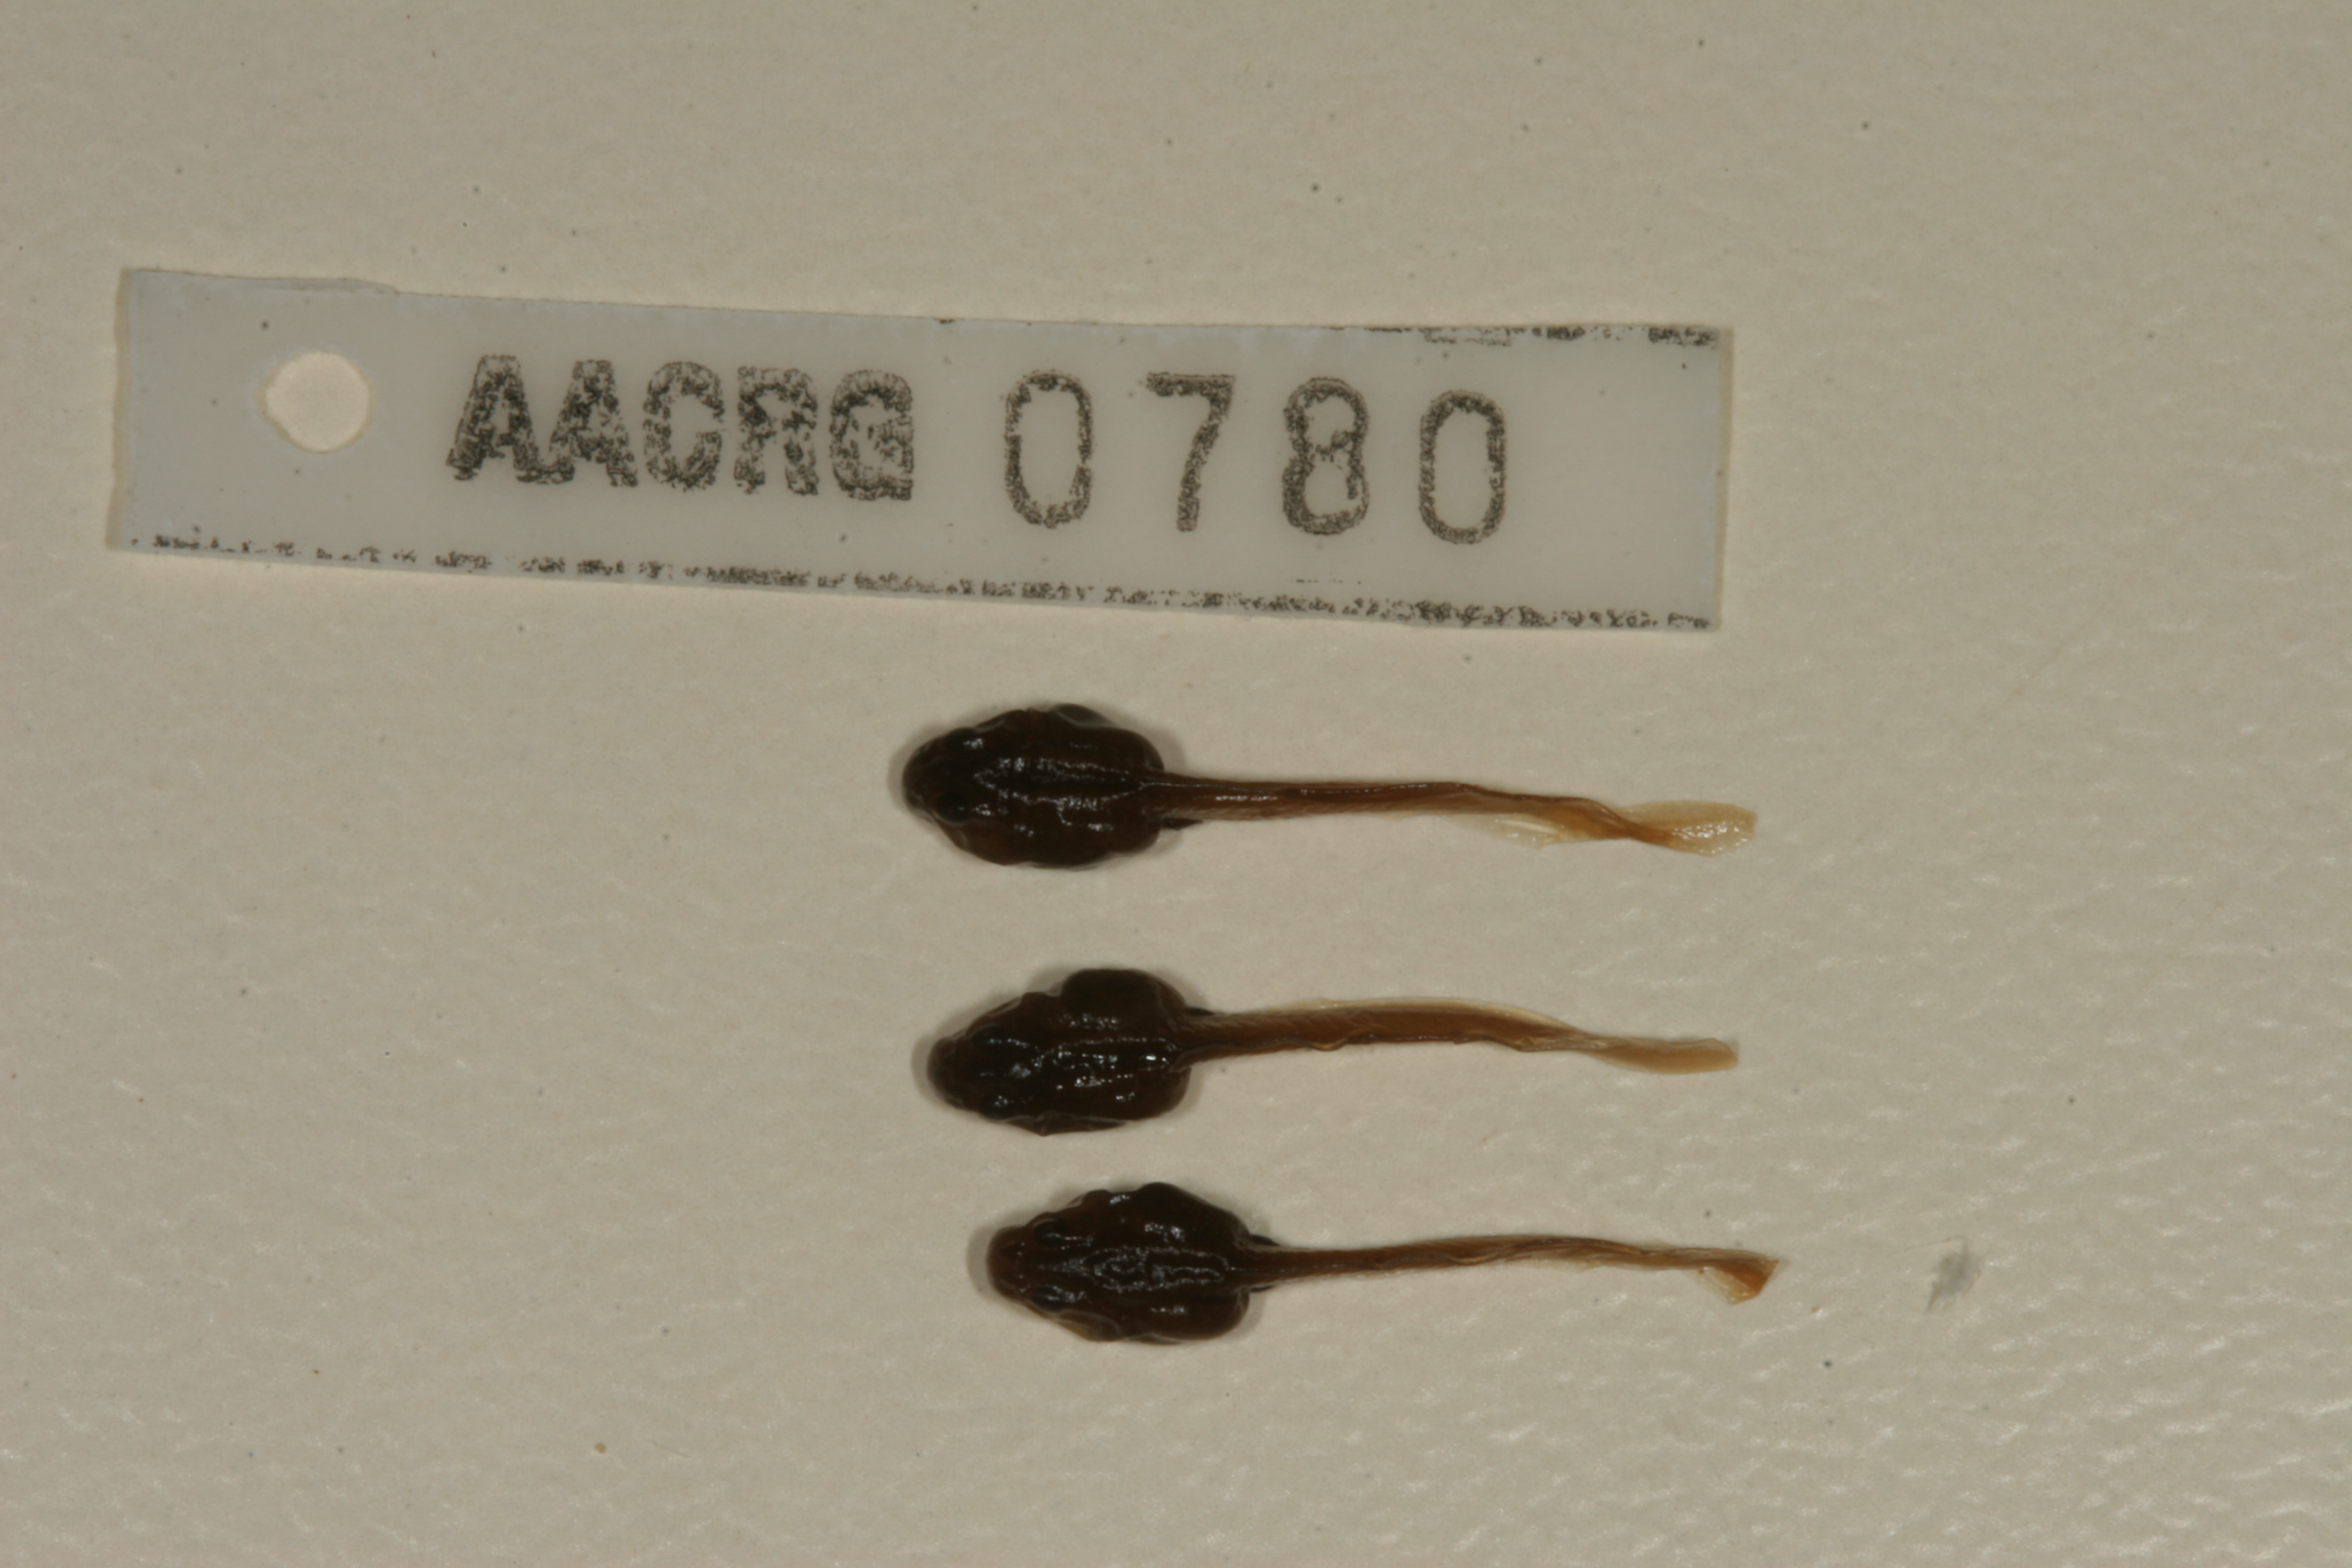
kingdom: Animalia
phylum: Chordata
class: Amphibia
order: Anura
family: Bufonidae
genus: Capensibufo
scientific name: Capensibufo tradouwi
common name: Tradouw mountain toadlet
